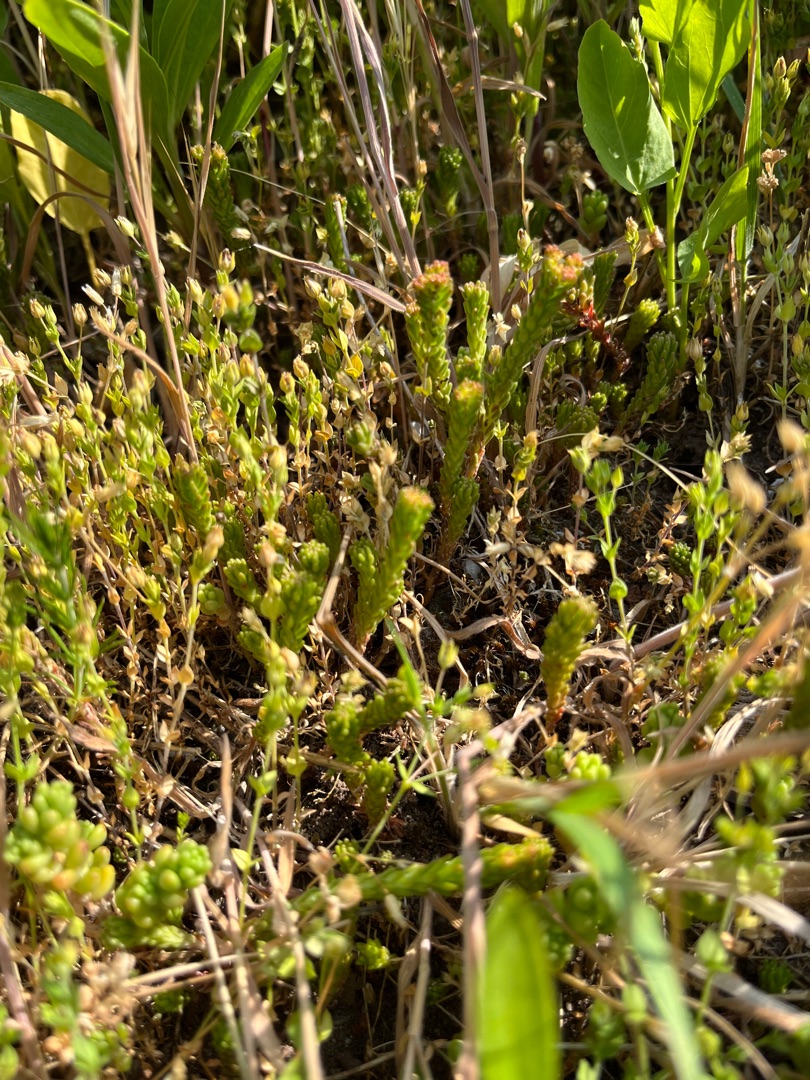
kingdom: Plantae
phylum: Tracheophyta
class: Magnoliopsida
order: Saxifragales
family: Crassulaceae
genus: Sedum
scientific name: Sedum sexangulare
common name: Seksradet stenurt
